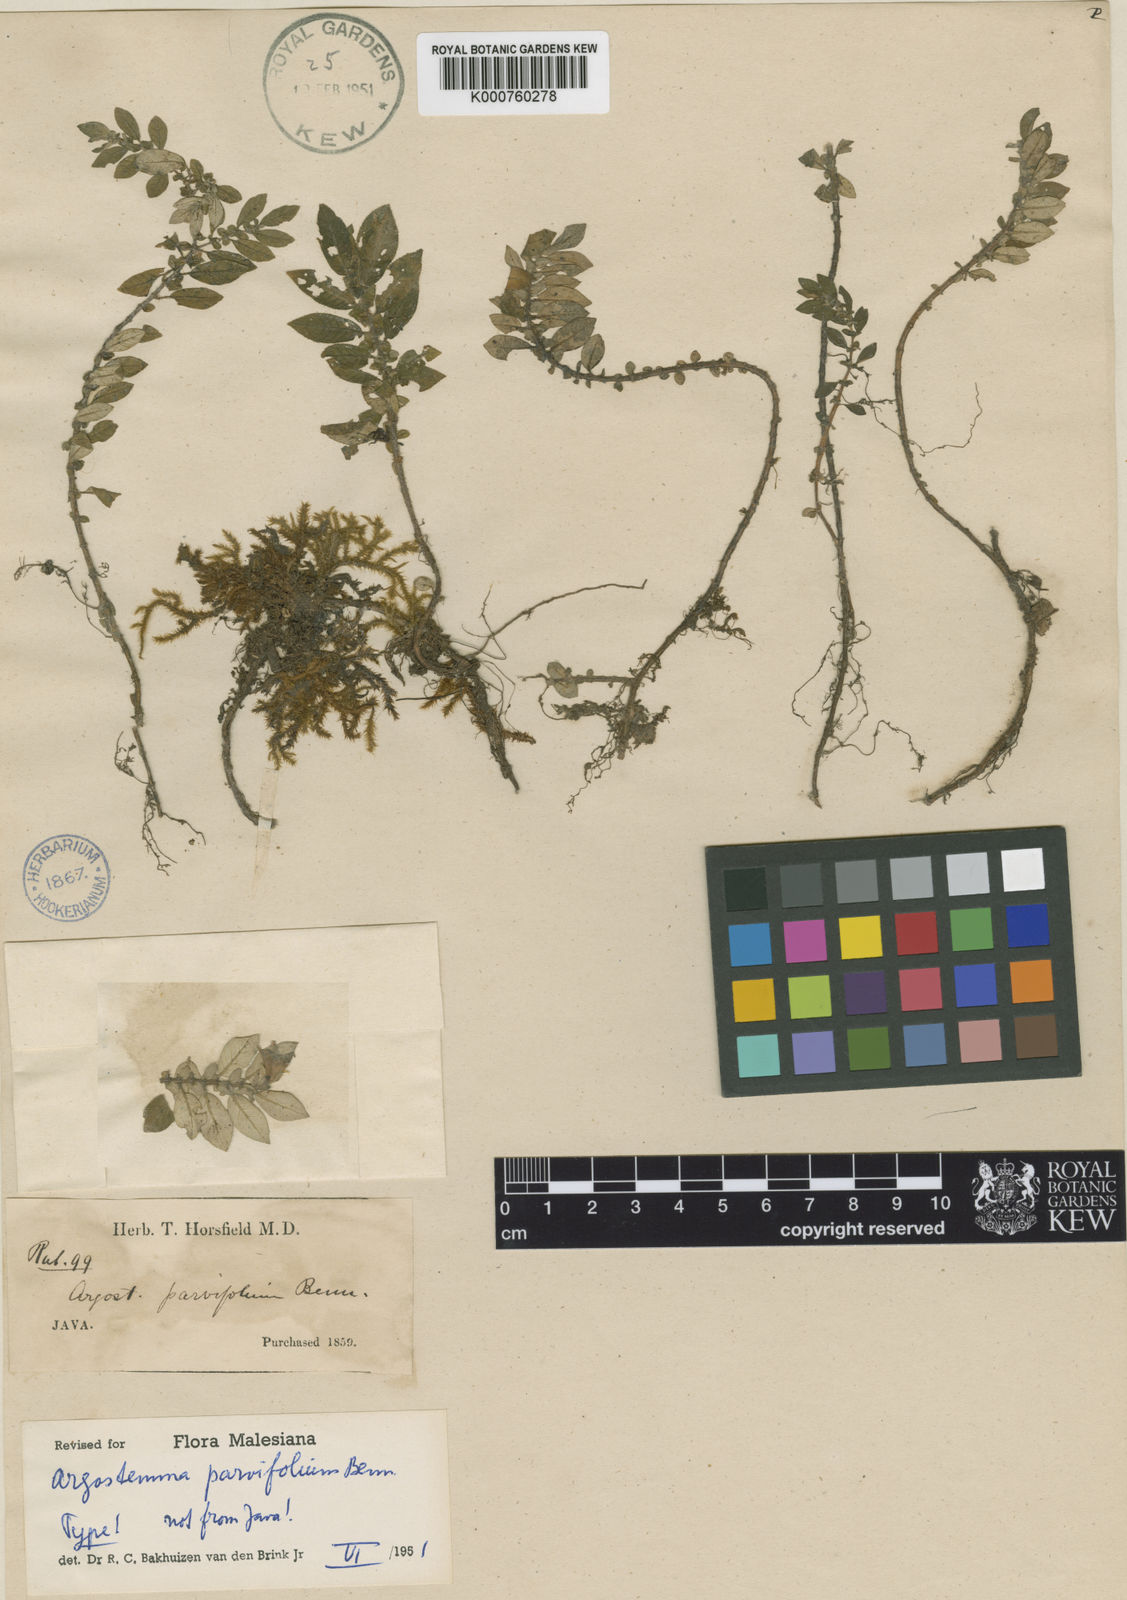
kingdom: Plantae
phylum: Tracheophyta
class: Magnoliopsida
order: Gentianales
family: Rubiaceae
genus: Argostemma
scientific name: Argostemma parvifolium
